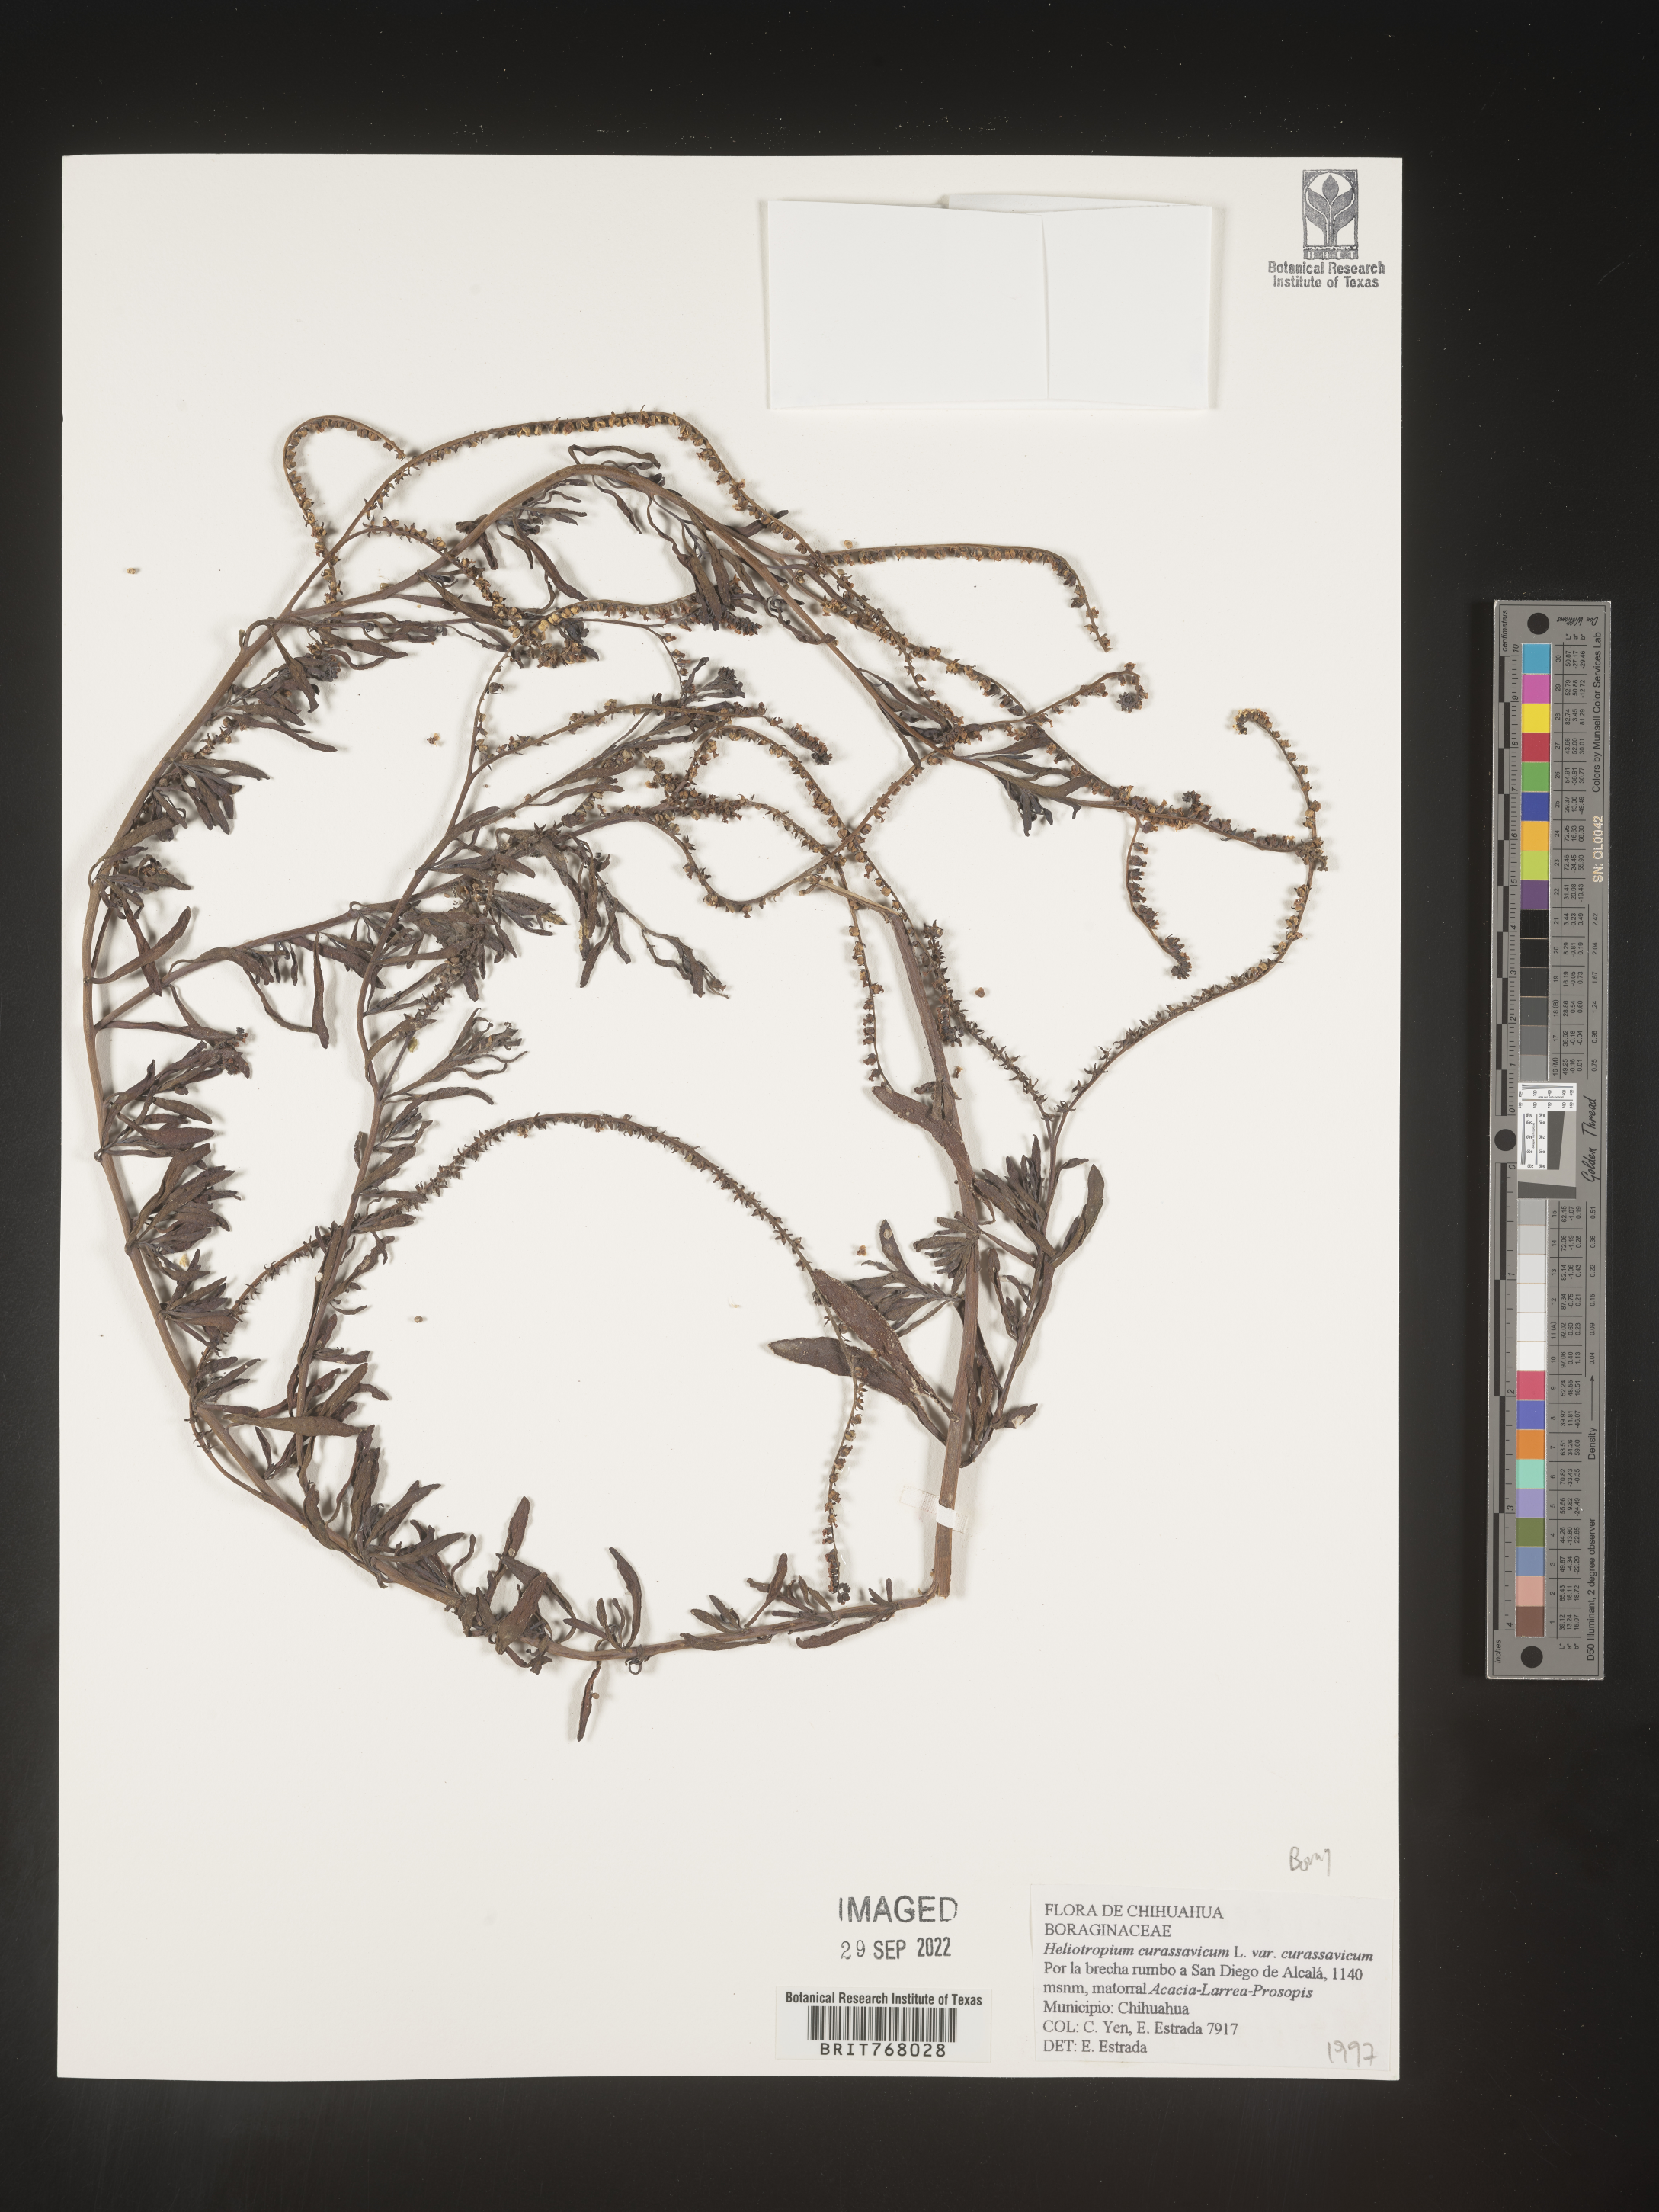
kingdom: Plantae
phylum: Tracheophyta
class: Magnoliopsida
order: Boraginales
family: Heliotropiaceae
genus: Heliotropium
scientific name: Heliotropium curassavicum
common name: Seaside heliotrope
